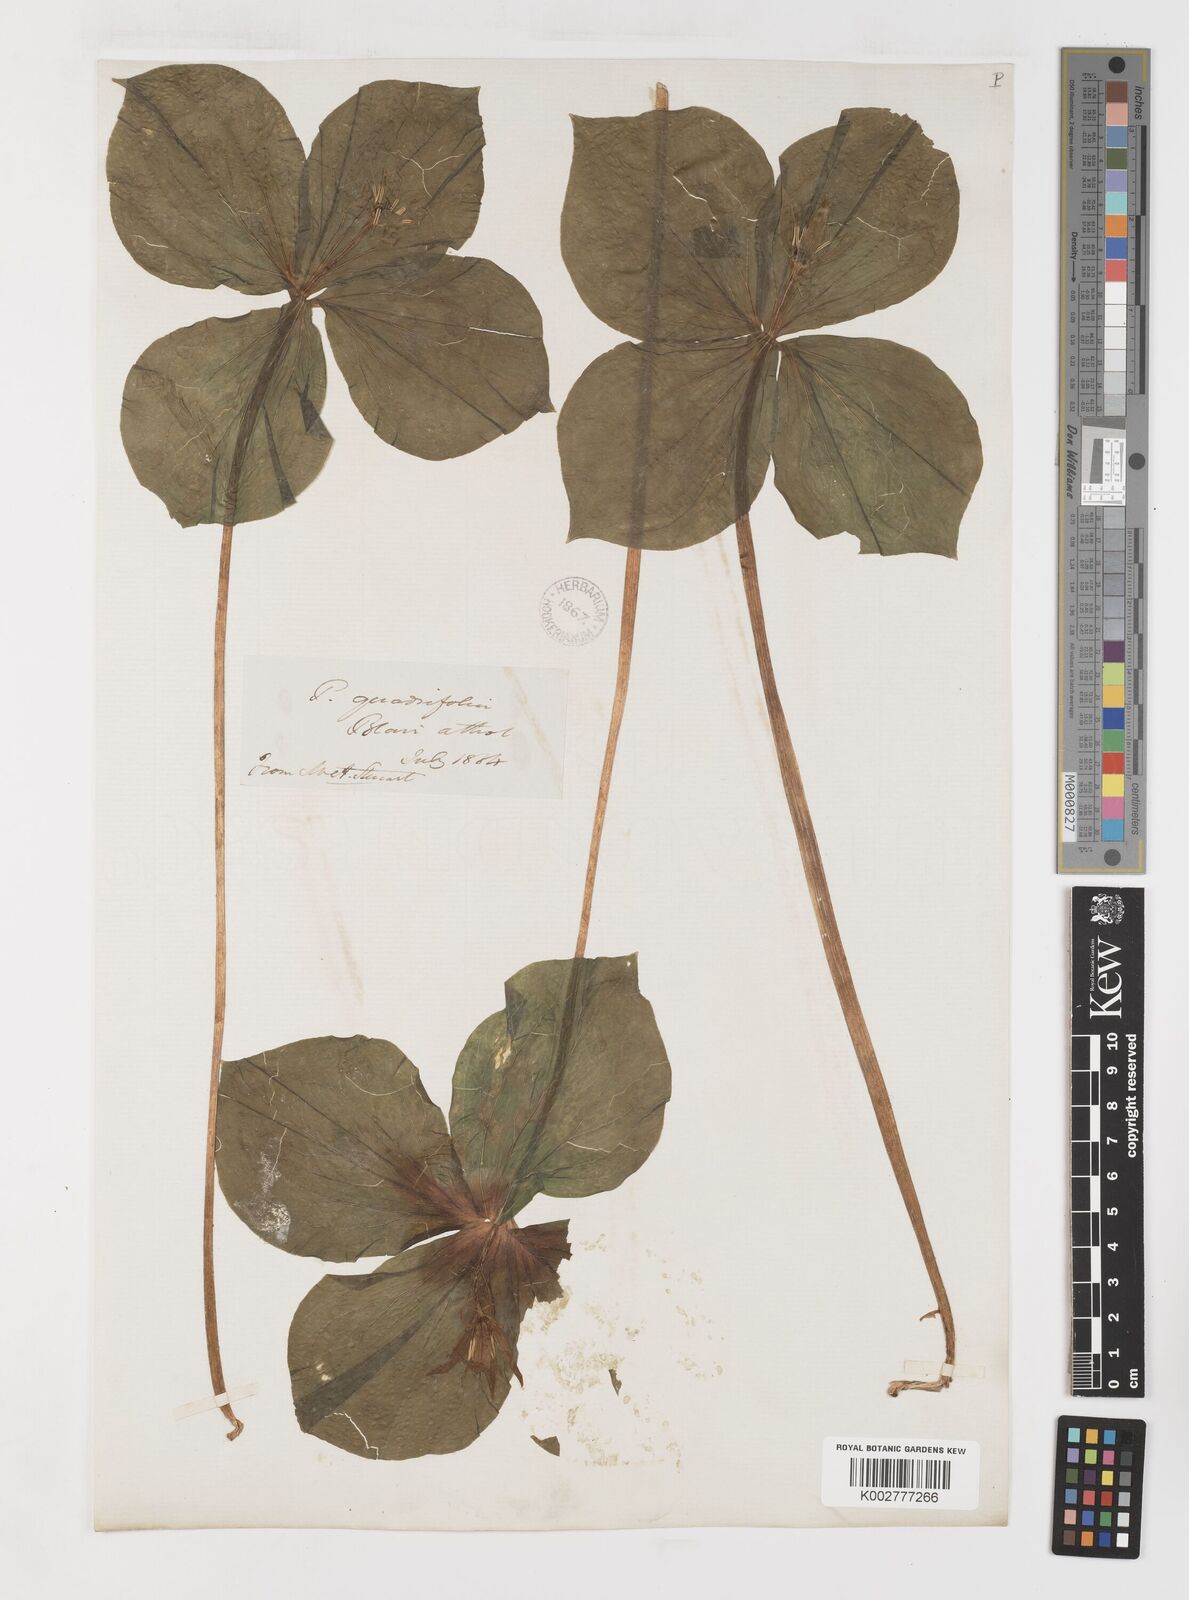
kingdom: Plantae
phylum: Tracheophyta
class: Liliopsida
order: Liliales
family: Melanthiaceae
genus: Paris
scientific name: Paris quadrifolia
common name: Herb-paris
